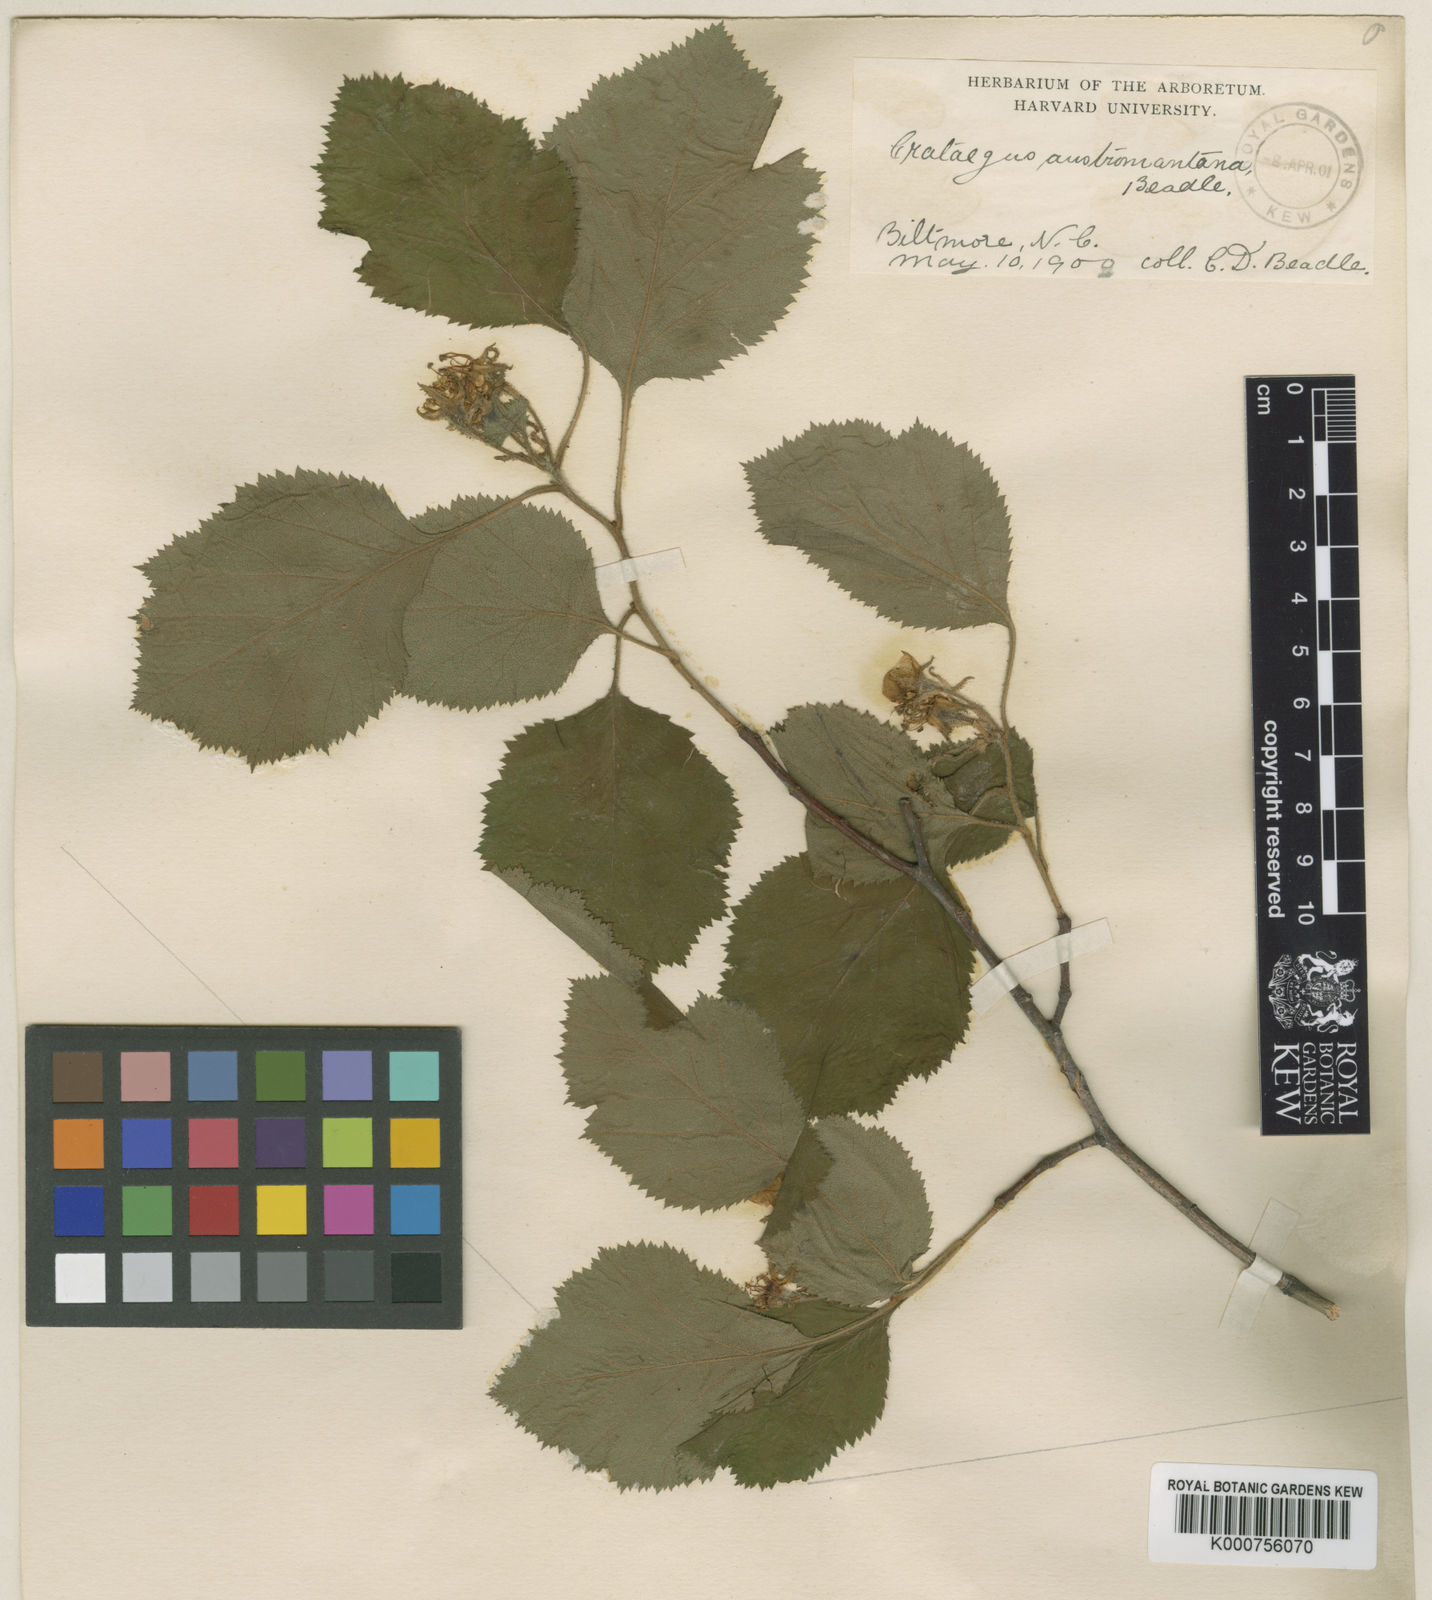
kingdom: Plantae
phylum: Tracheophyta
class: Magnoliopsida
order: Rosales
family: Rosaceae
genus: Crataegus
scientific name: Crataegus austromontana
